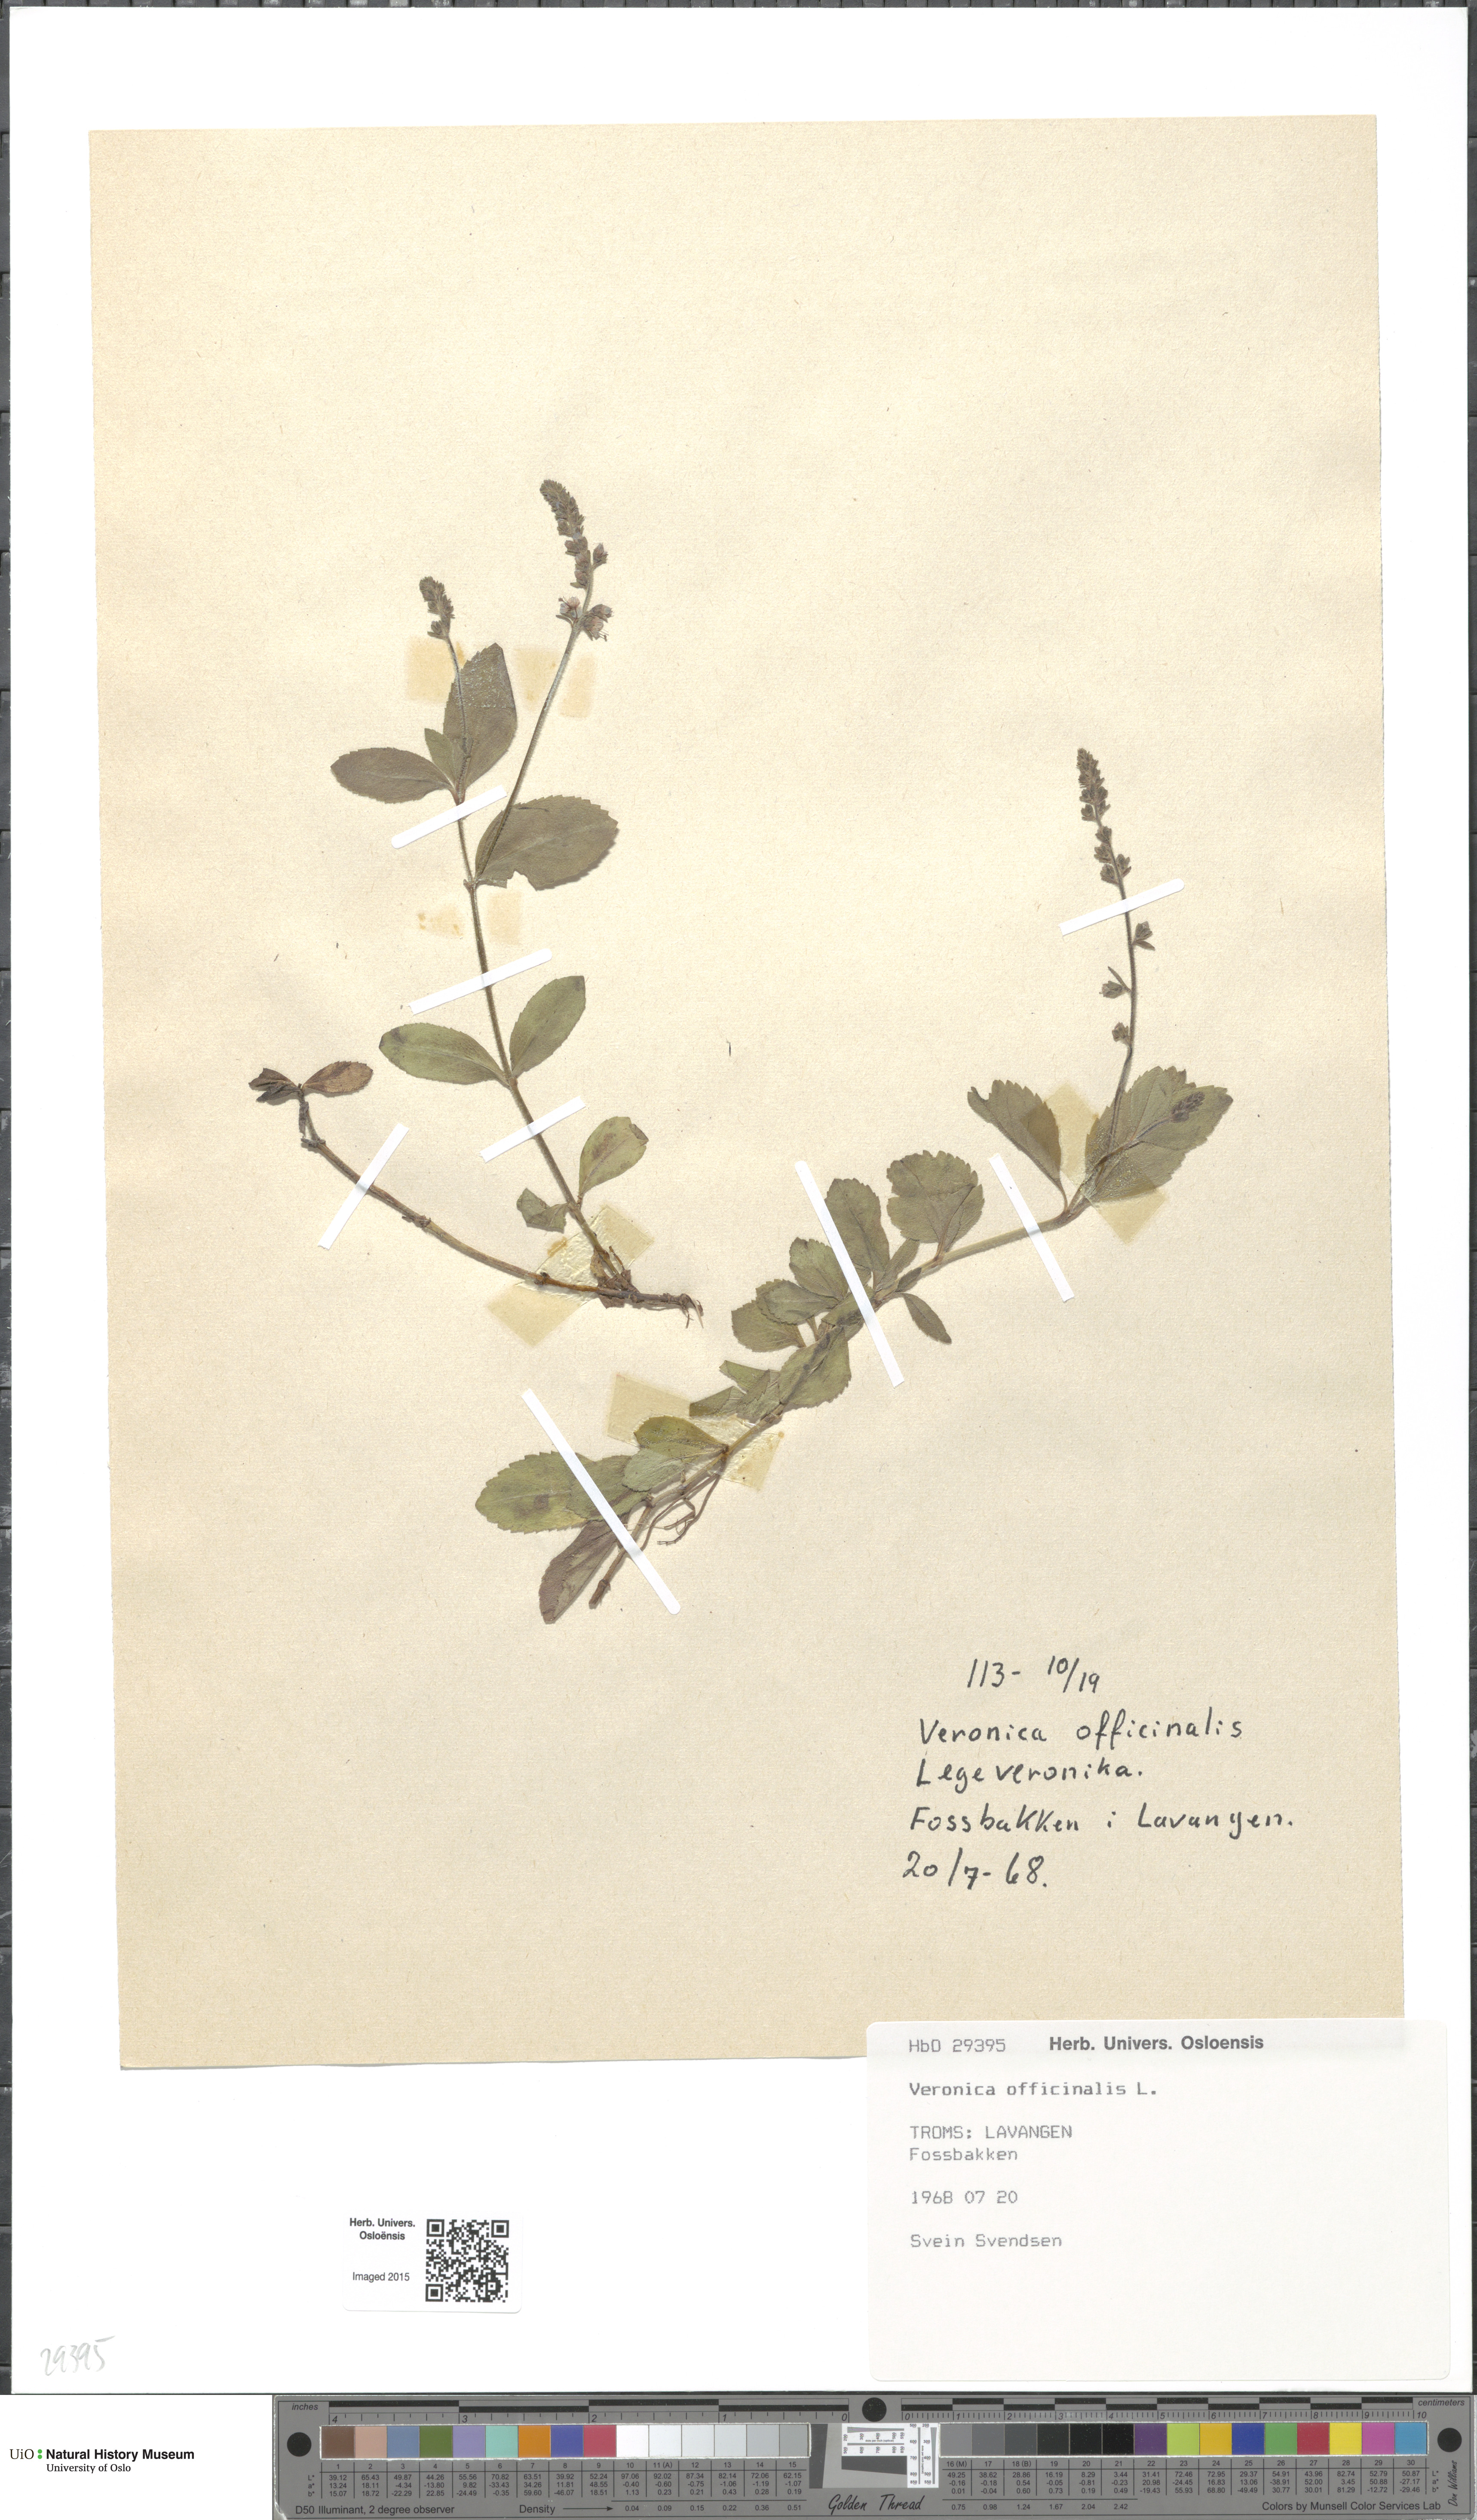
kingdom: Plantae
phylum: Tracheophyta
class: Magnoliopsida
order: Lamiales
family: Plantaginaceae
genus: Veronica
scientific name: Veronica officinalis
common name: Common speedwell
